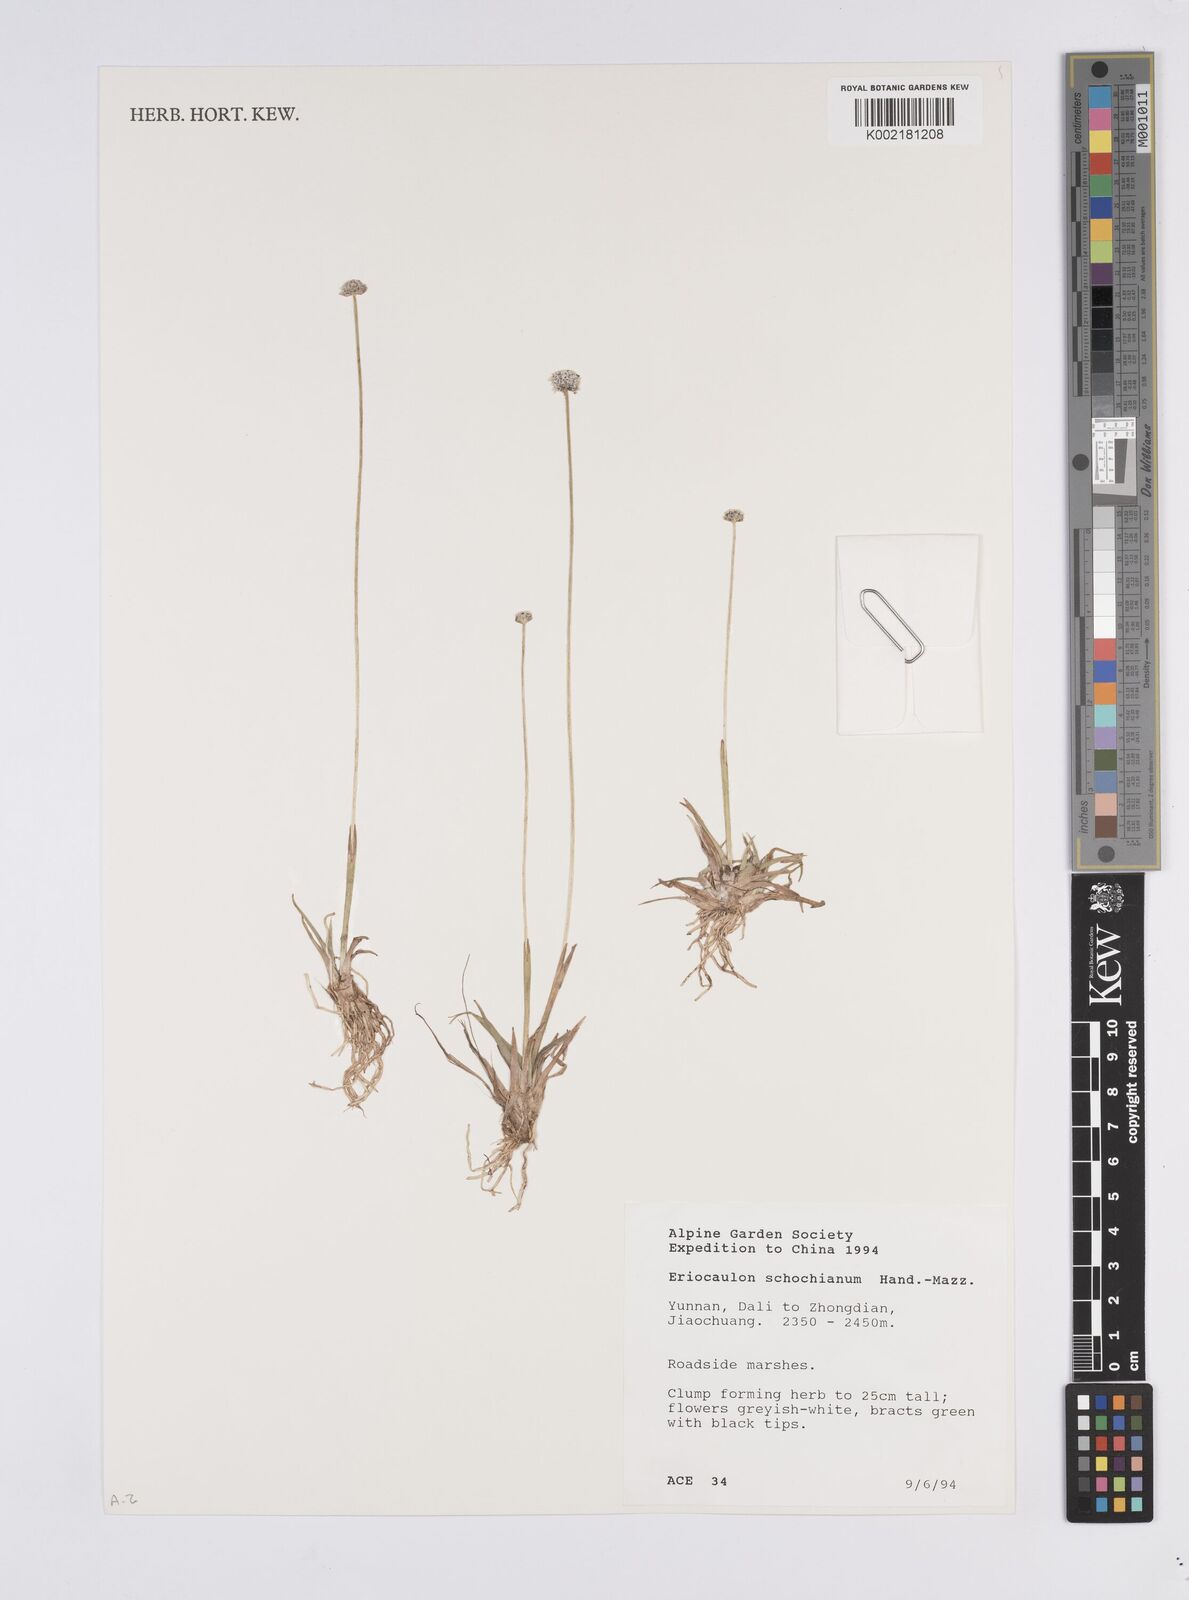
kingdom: Plantae
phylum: Tracheophyta
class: Liliopsida
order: Poales
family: Eriocaulaceae
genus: Eriocaulon
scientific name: Eriocaulon schochianum
